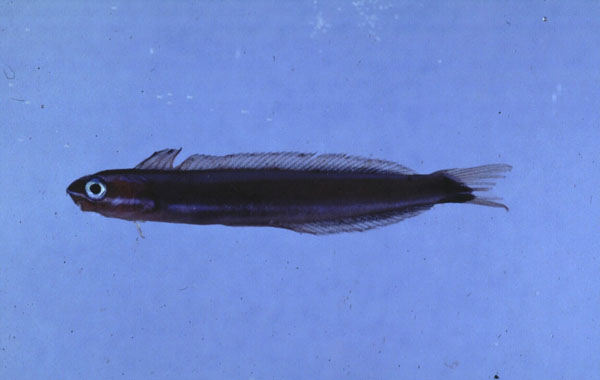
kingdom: Animalia
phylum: Chordata
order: Perciformes
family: Blenniidae
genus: Plagiotremus
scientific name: Plagiotremus rhinorhynchos
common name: Bluestriped fangblenny
